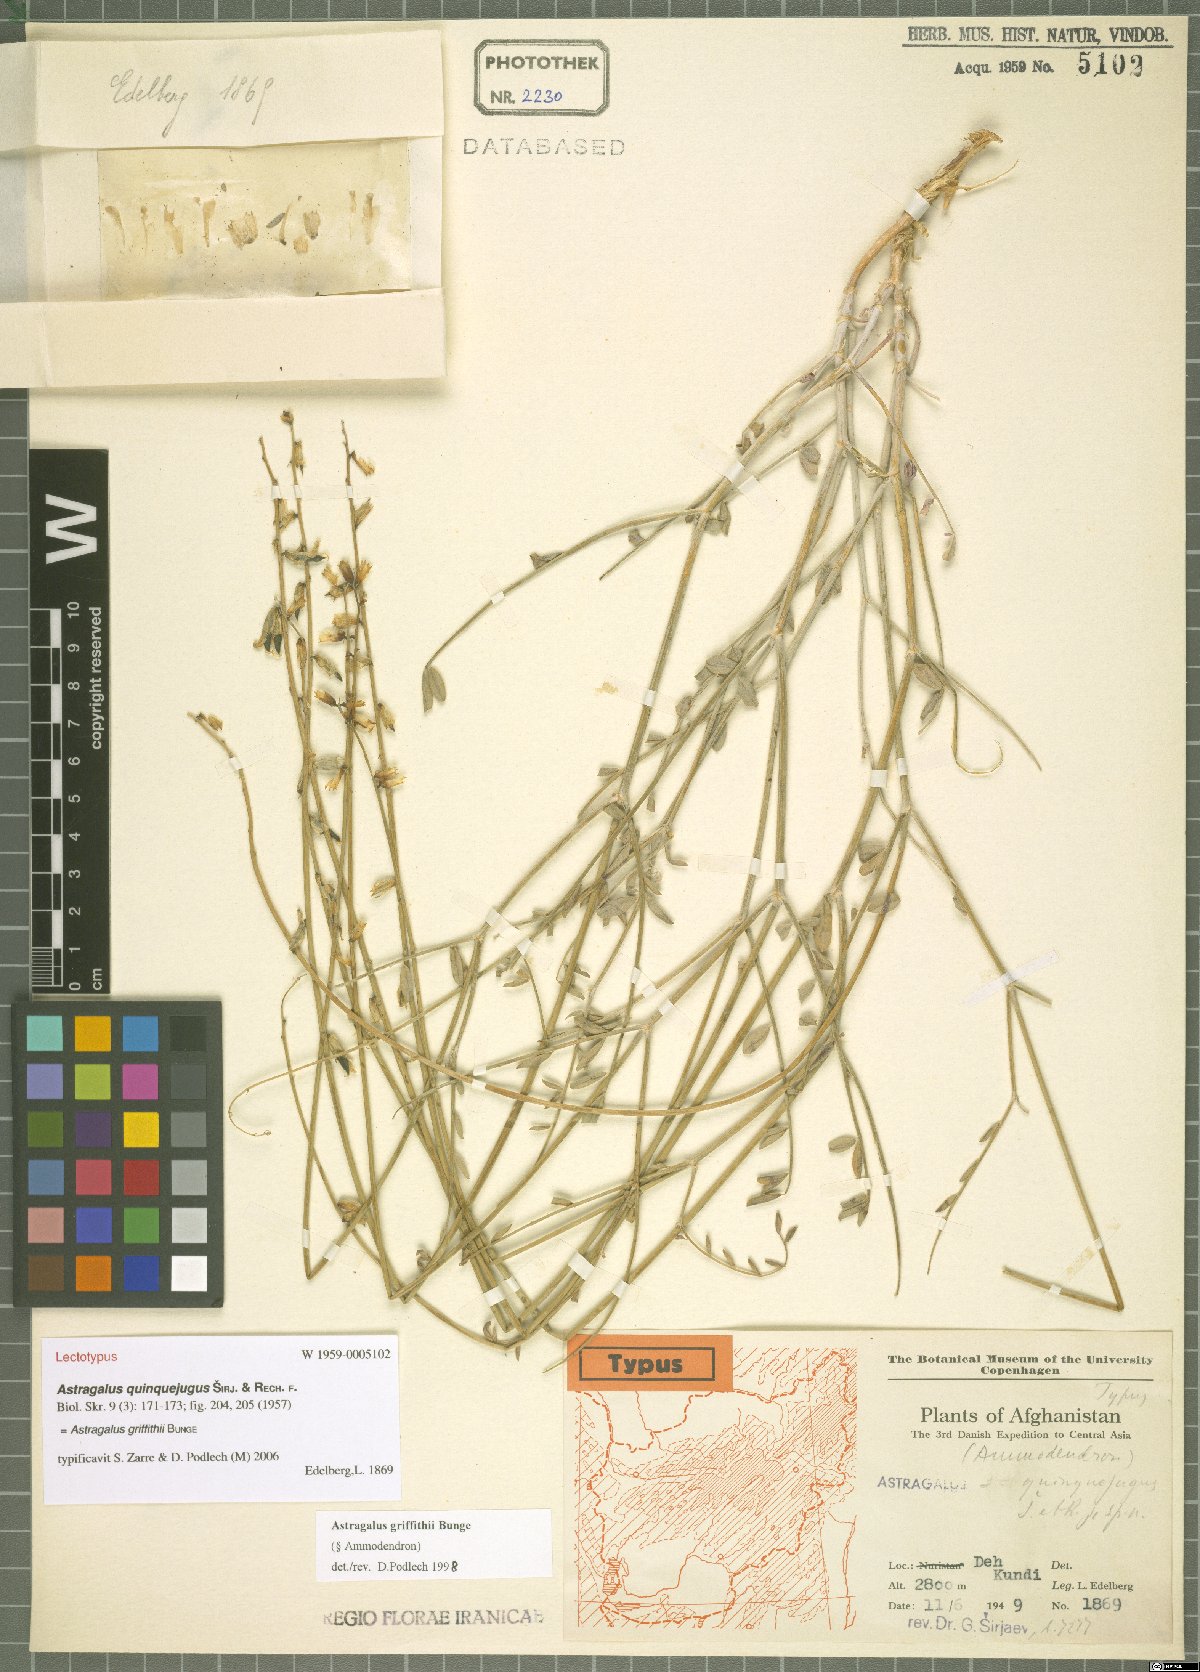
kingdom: Plantae
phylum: Tracheophyta
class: Magnoliopsida
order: Fabales
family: Fabaceae
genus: Astragalus
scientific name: Astragalus griffithii
